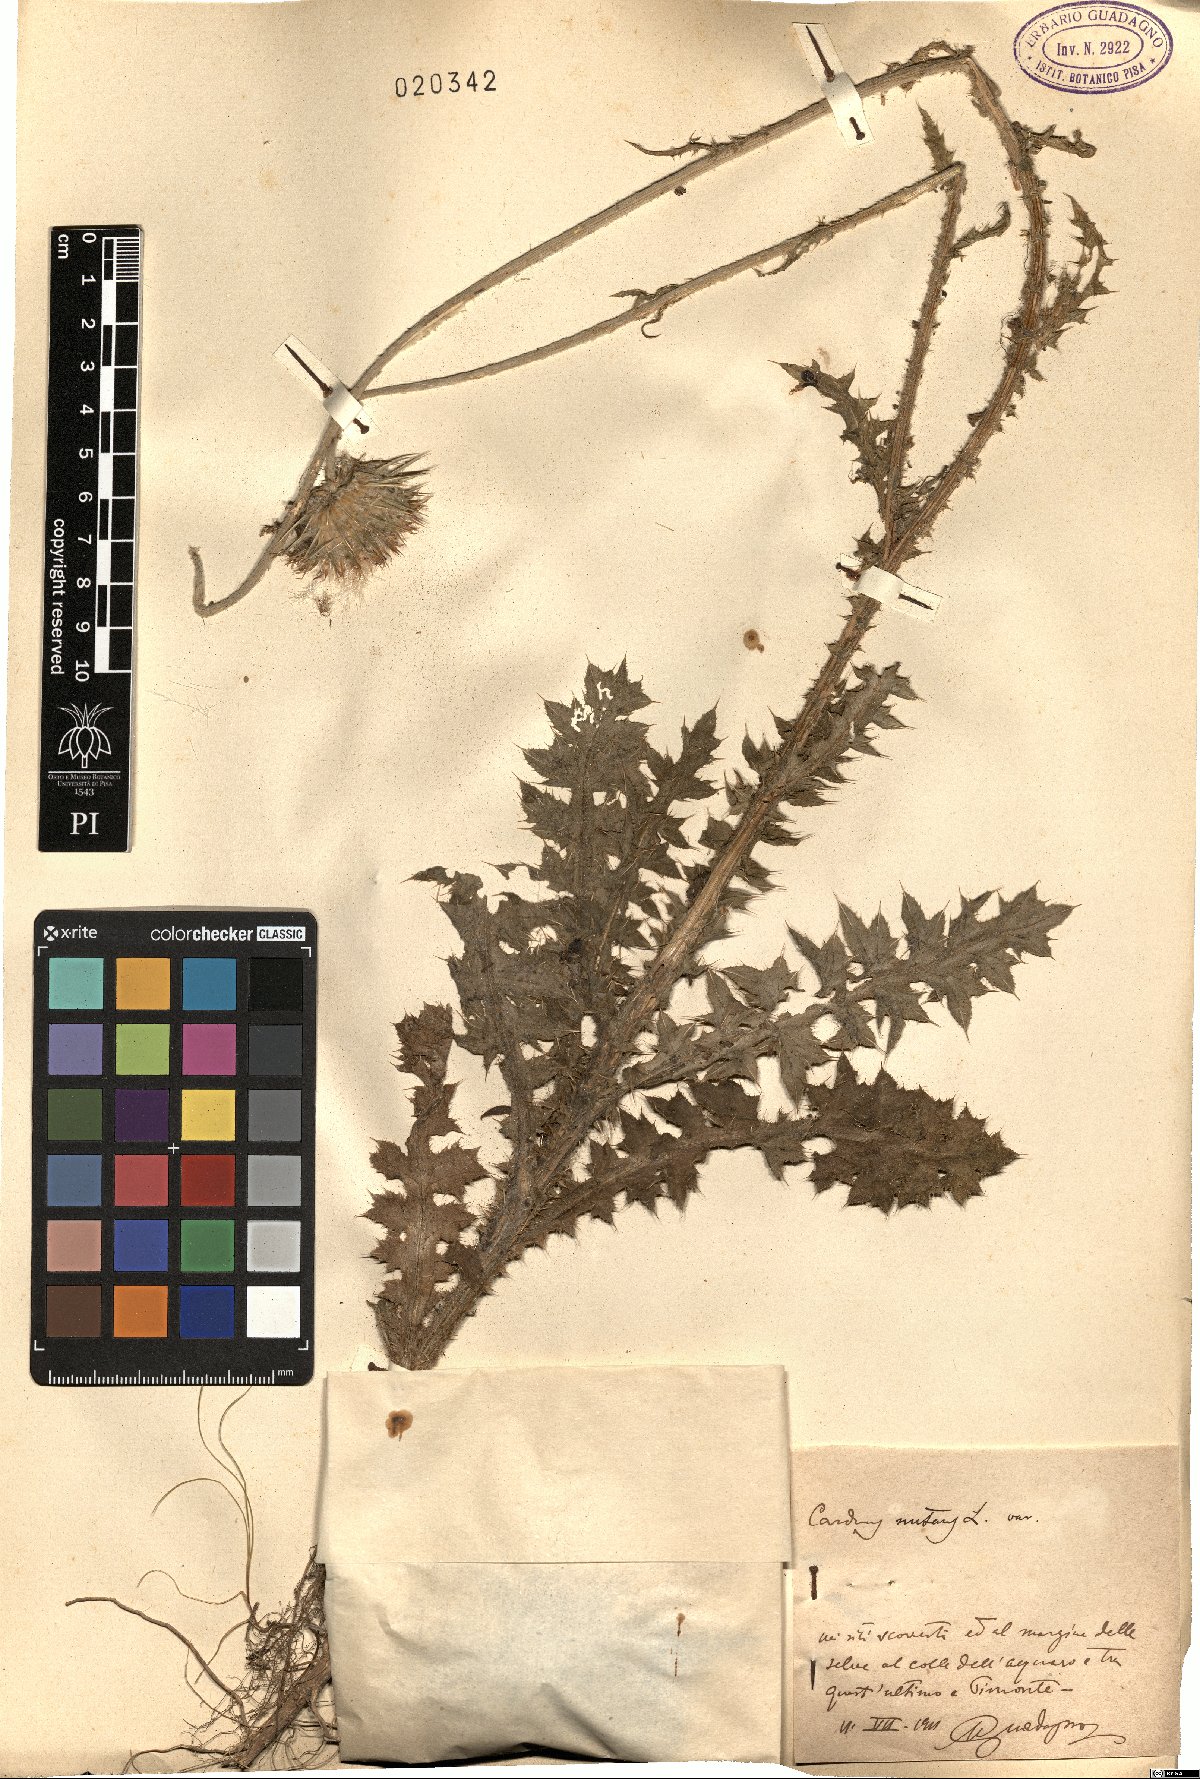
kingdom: Plantae
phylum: Tracheophyta
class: Magnoliopsida
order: Asterales
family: Asteraceae
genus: Carduus
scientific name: Carduus nutans
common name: Musk thistle
